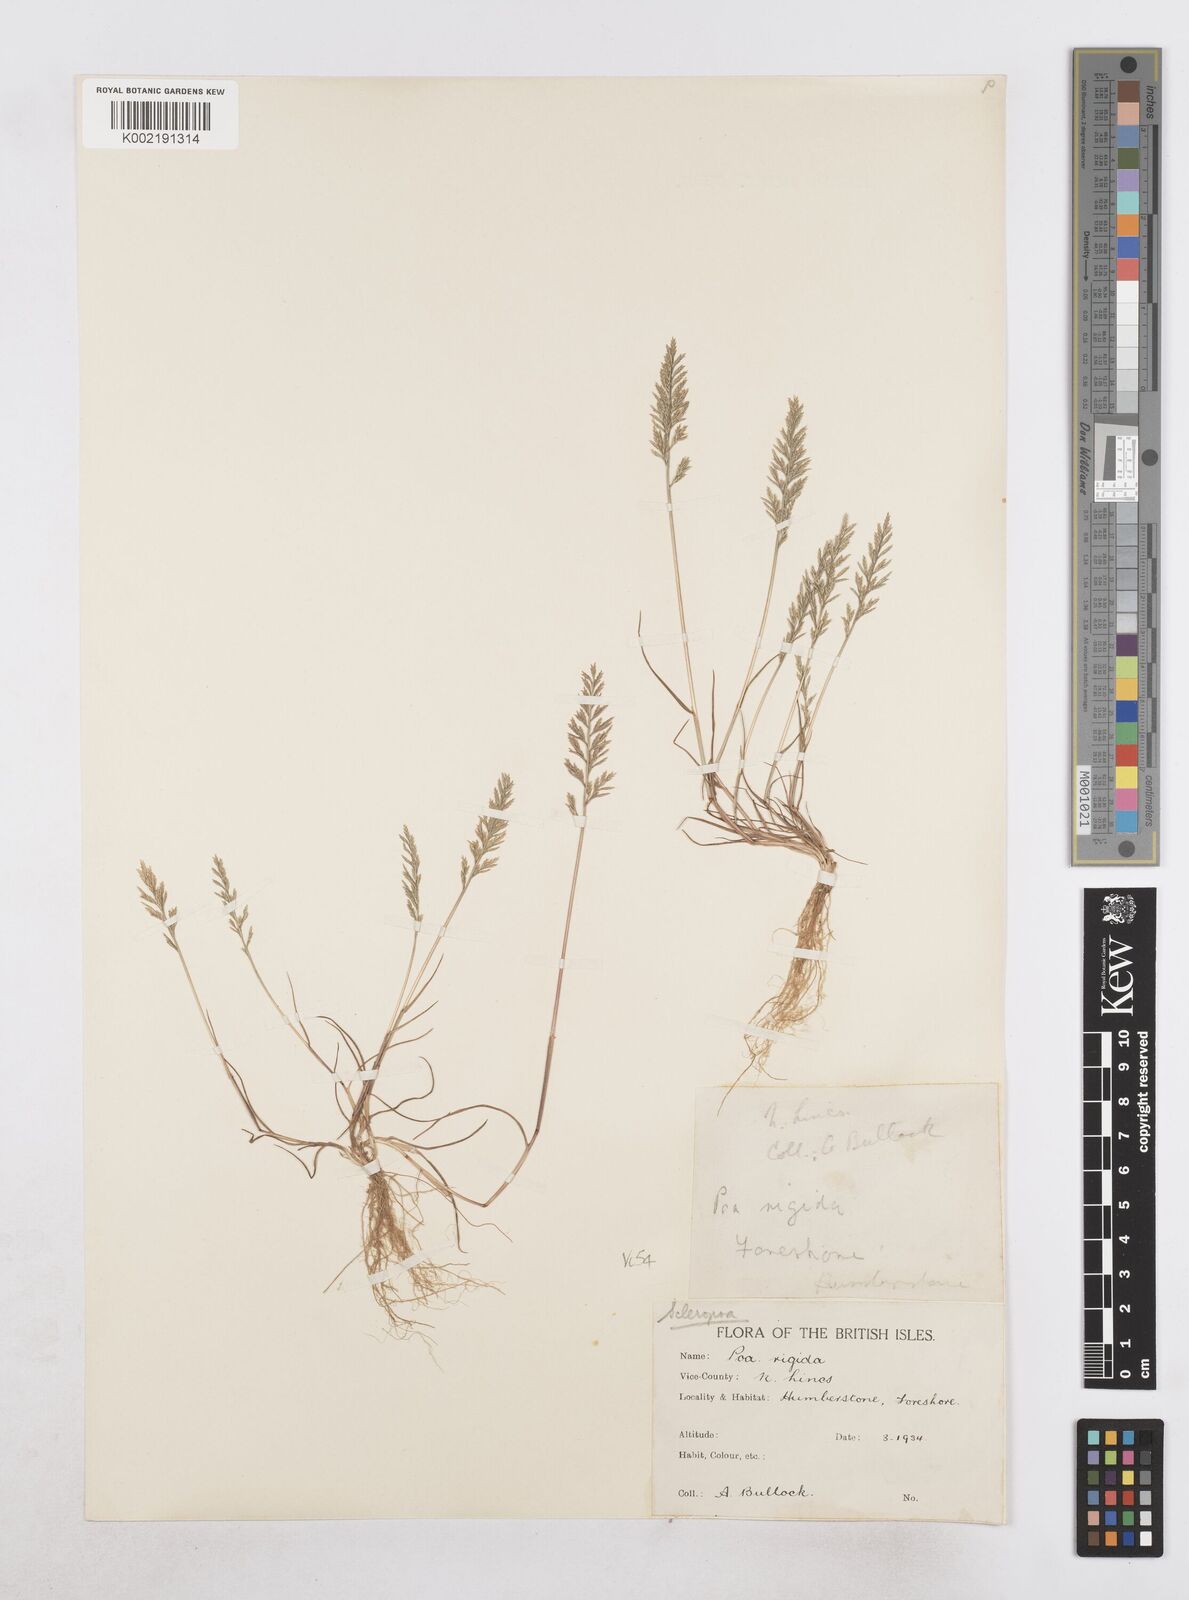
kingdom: Plantae
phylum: Tracheophyta
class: Liliopsida
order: Poales
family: Poaceae
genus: Catapodium
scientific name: Catapodium rigidum
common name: Fern-grass
